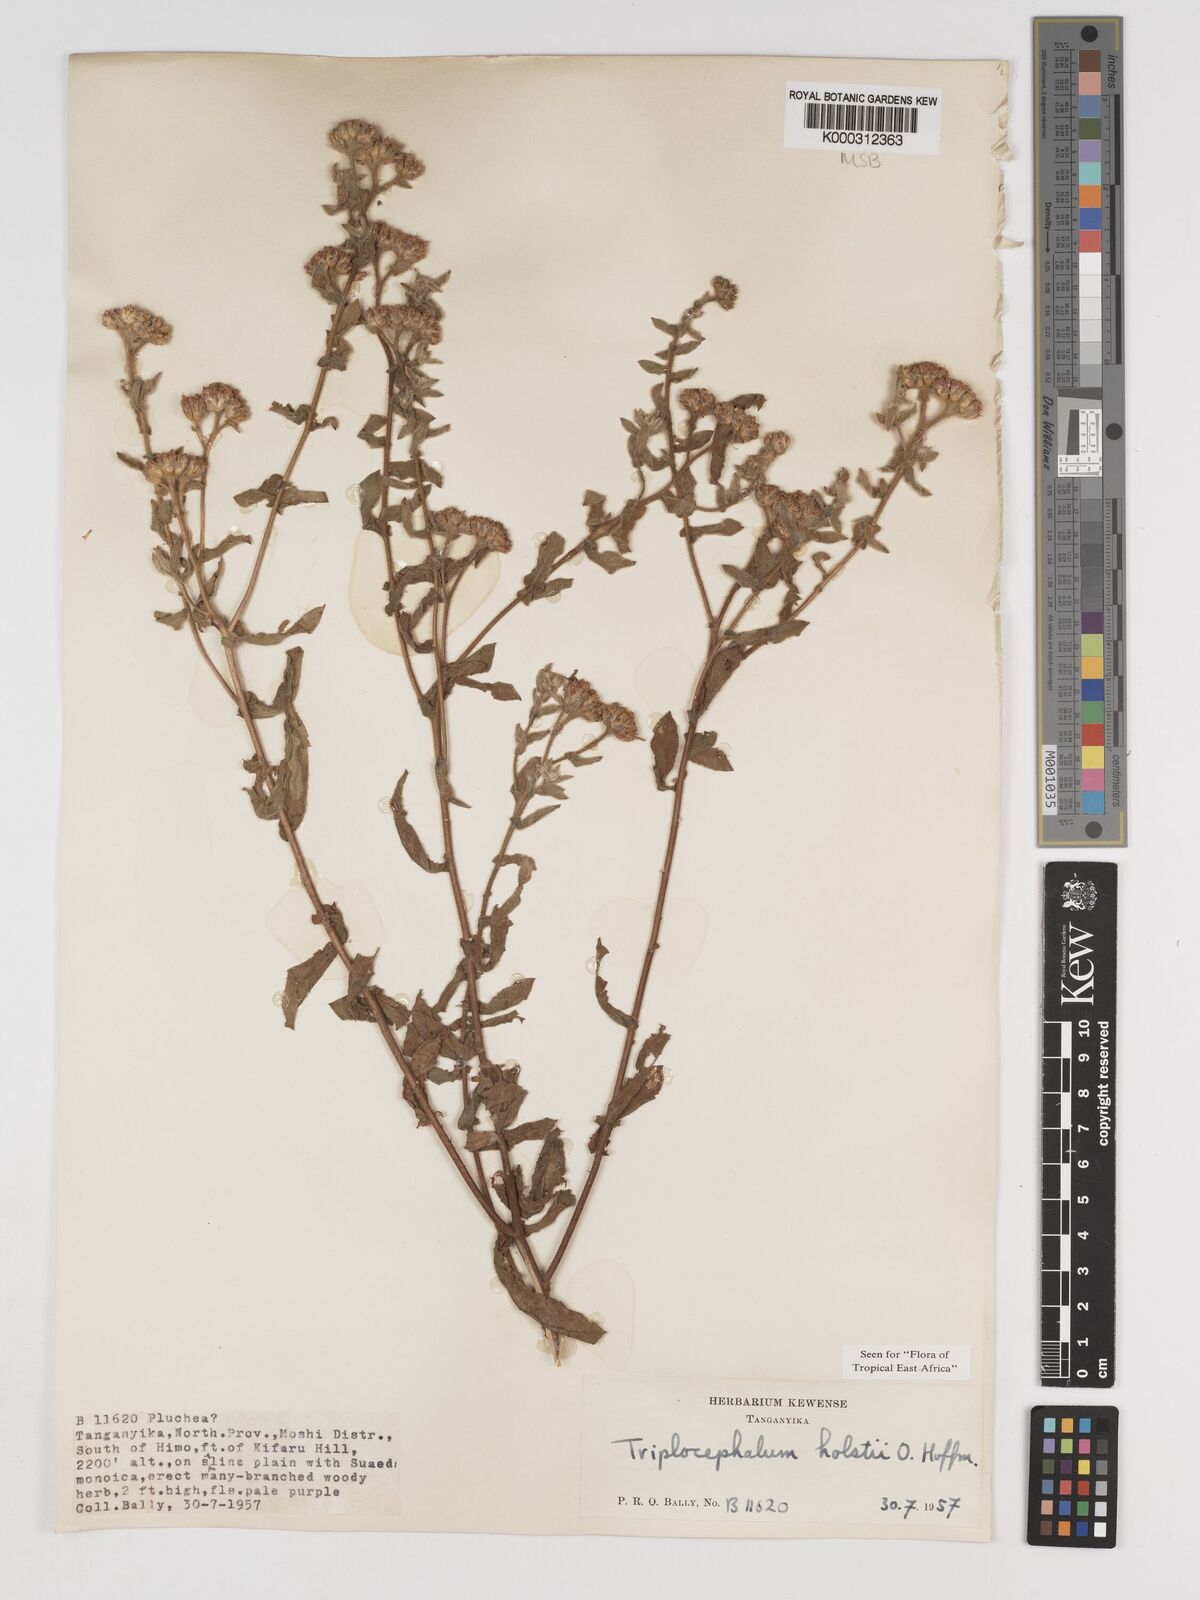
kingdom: Plantae
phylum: Tracheophyta
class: Magnoliopsida
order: Asterales
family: Asteraceae
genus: Triplocephalum
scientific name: Triplocephalum holstii
